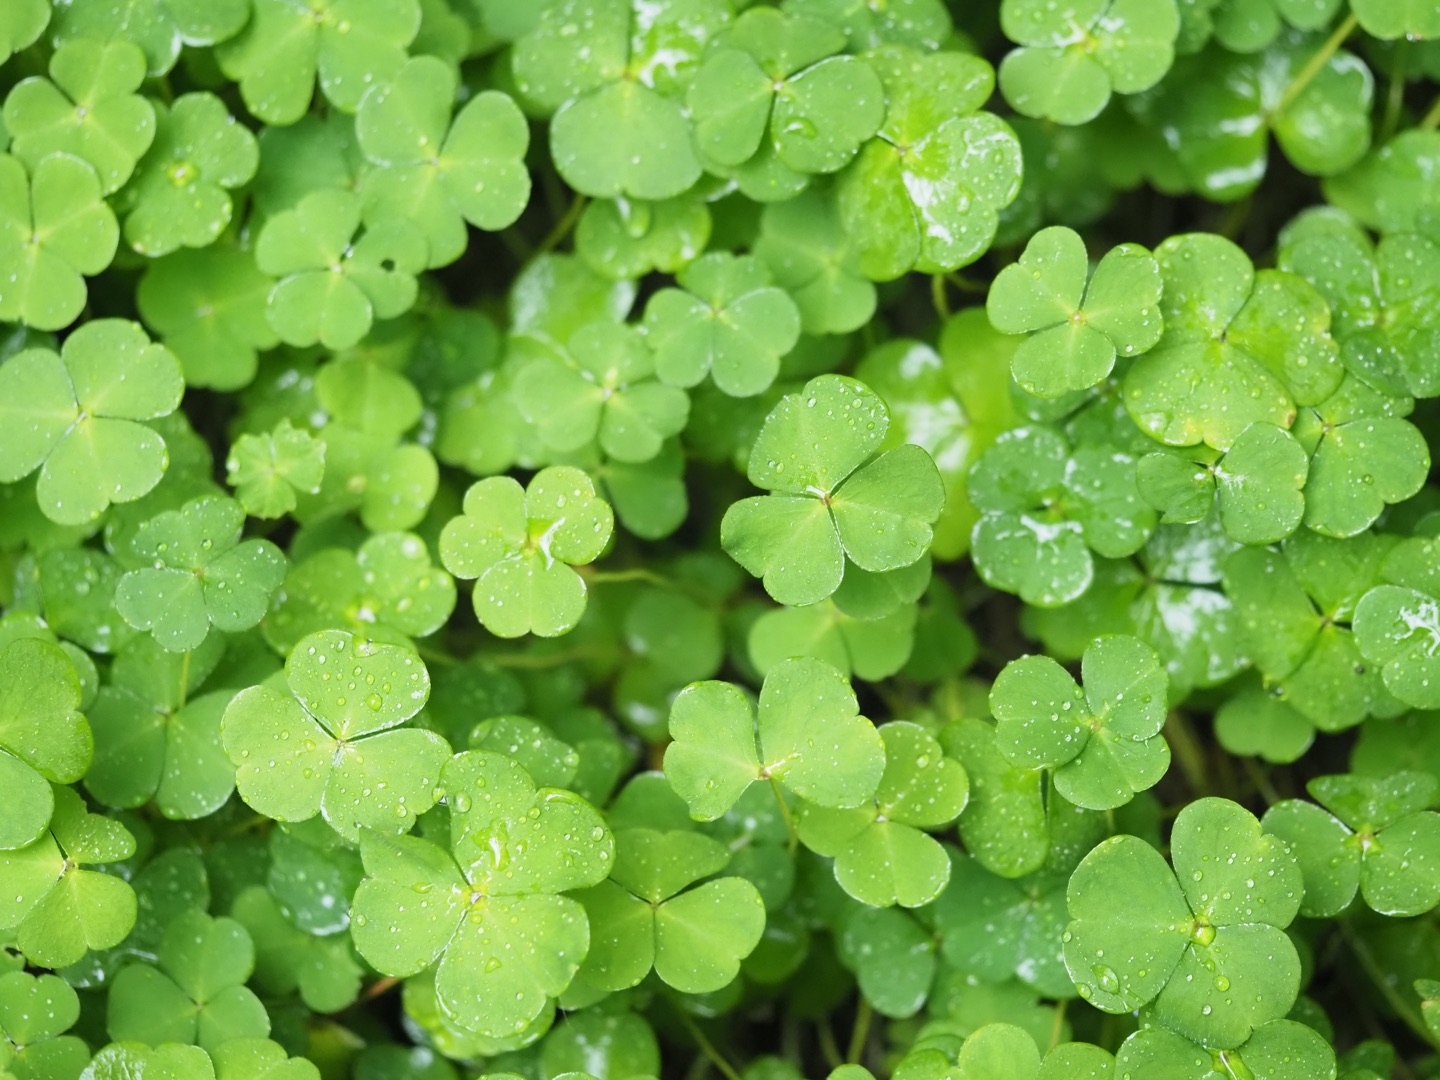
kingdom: Plantae
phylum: Tracheophyta
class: Magnoliopsida
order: Oxalidales
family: Oxalidaceae
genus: Oxalis
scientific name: Oxalis acetosella
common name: Skovsyre
